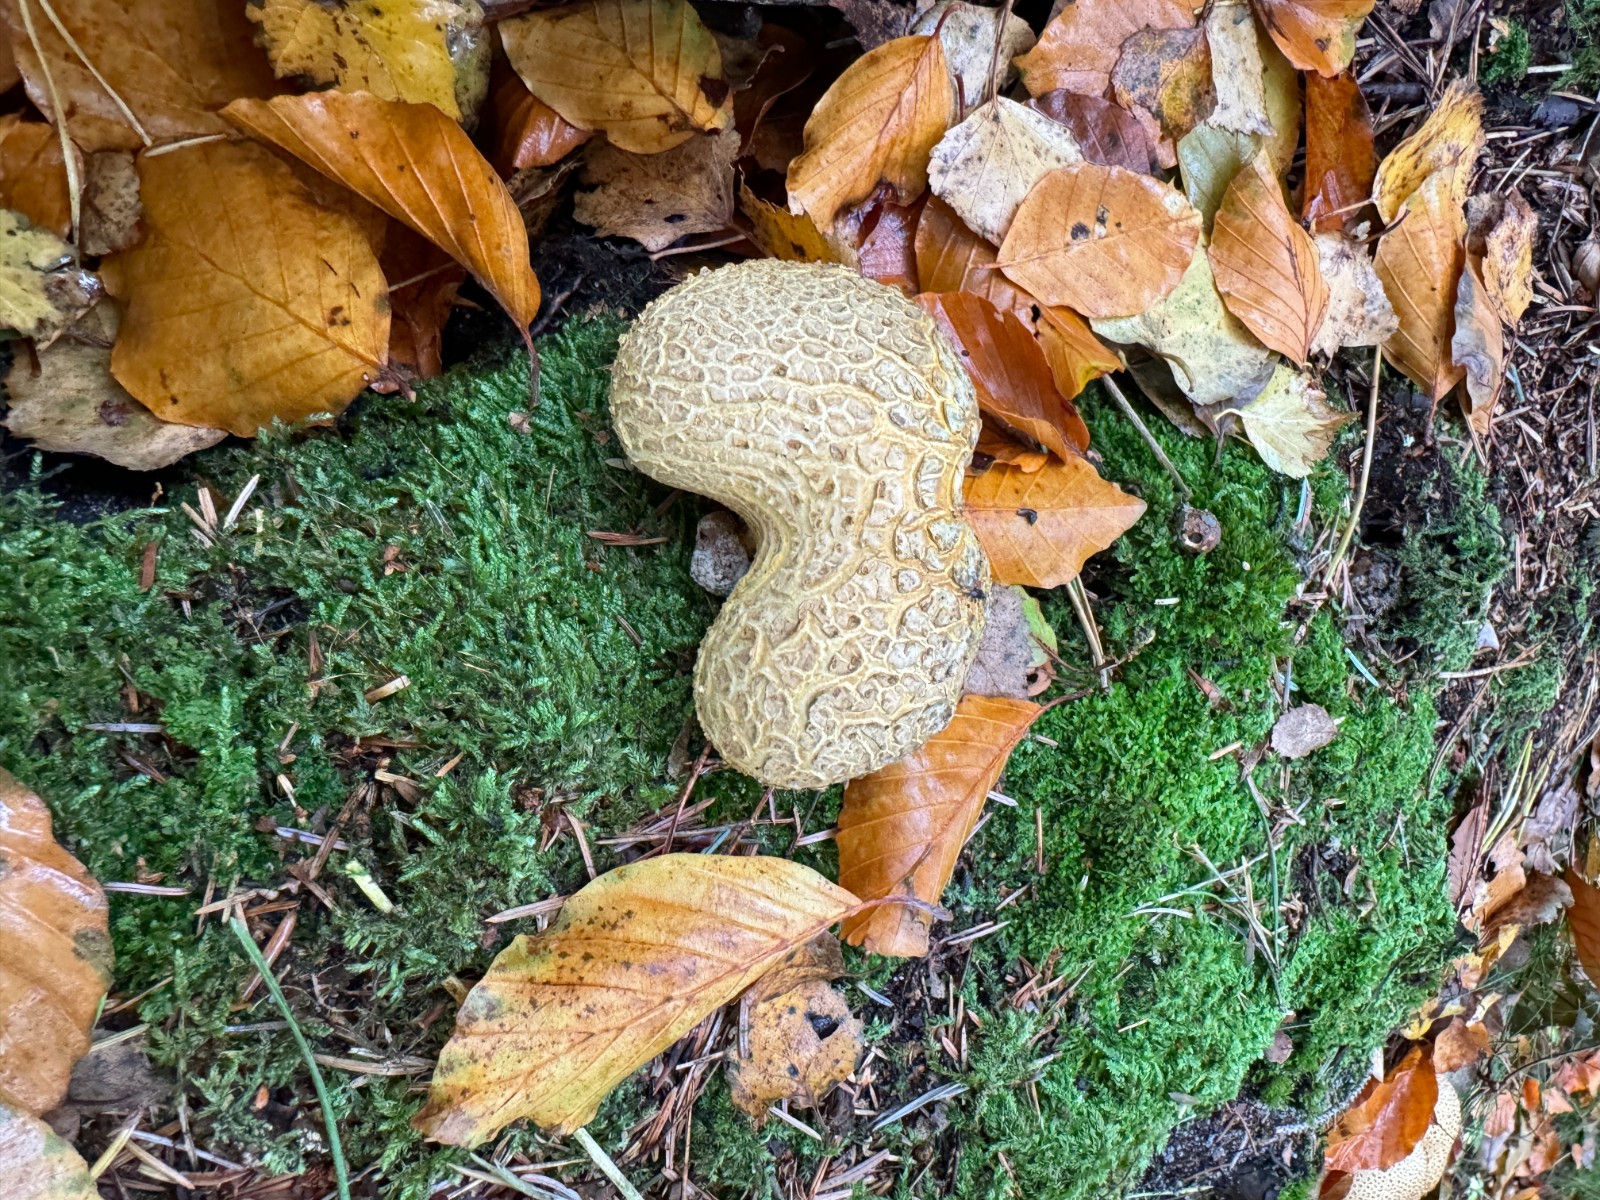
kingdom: Fungi
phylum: Basidiomycota
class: Agaricomycetes
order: Boletales
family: Sclerodermataceae
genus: Scleroderma
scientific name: Scleroderma citrinum
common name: almindelig bruskbold
